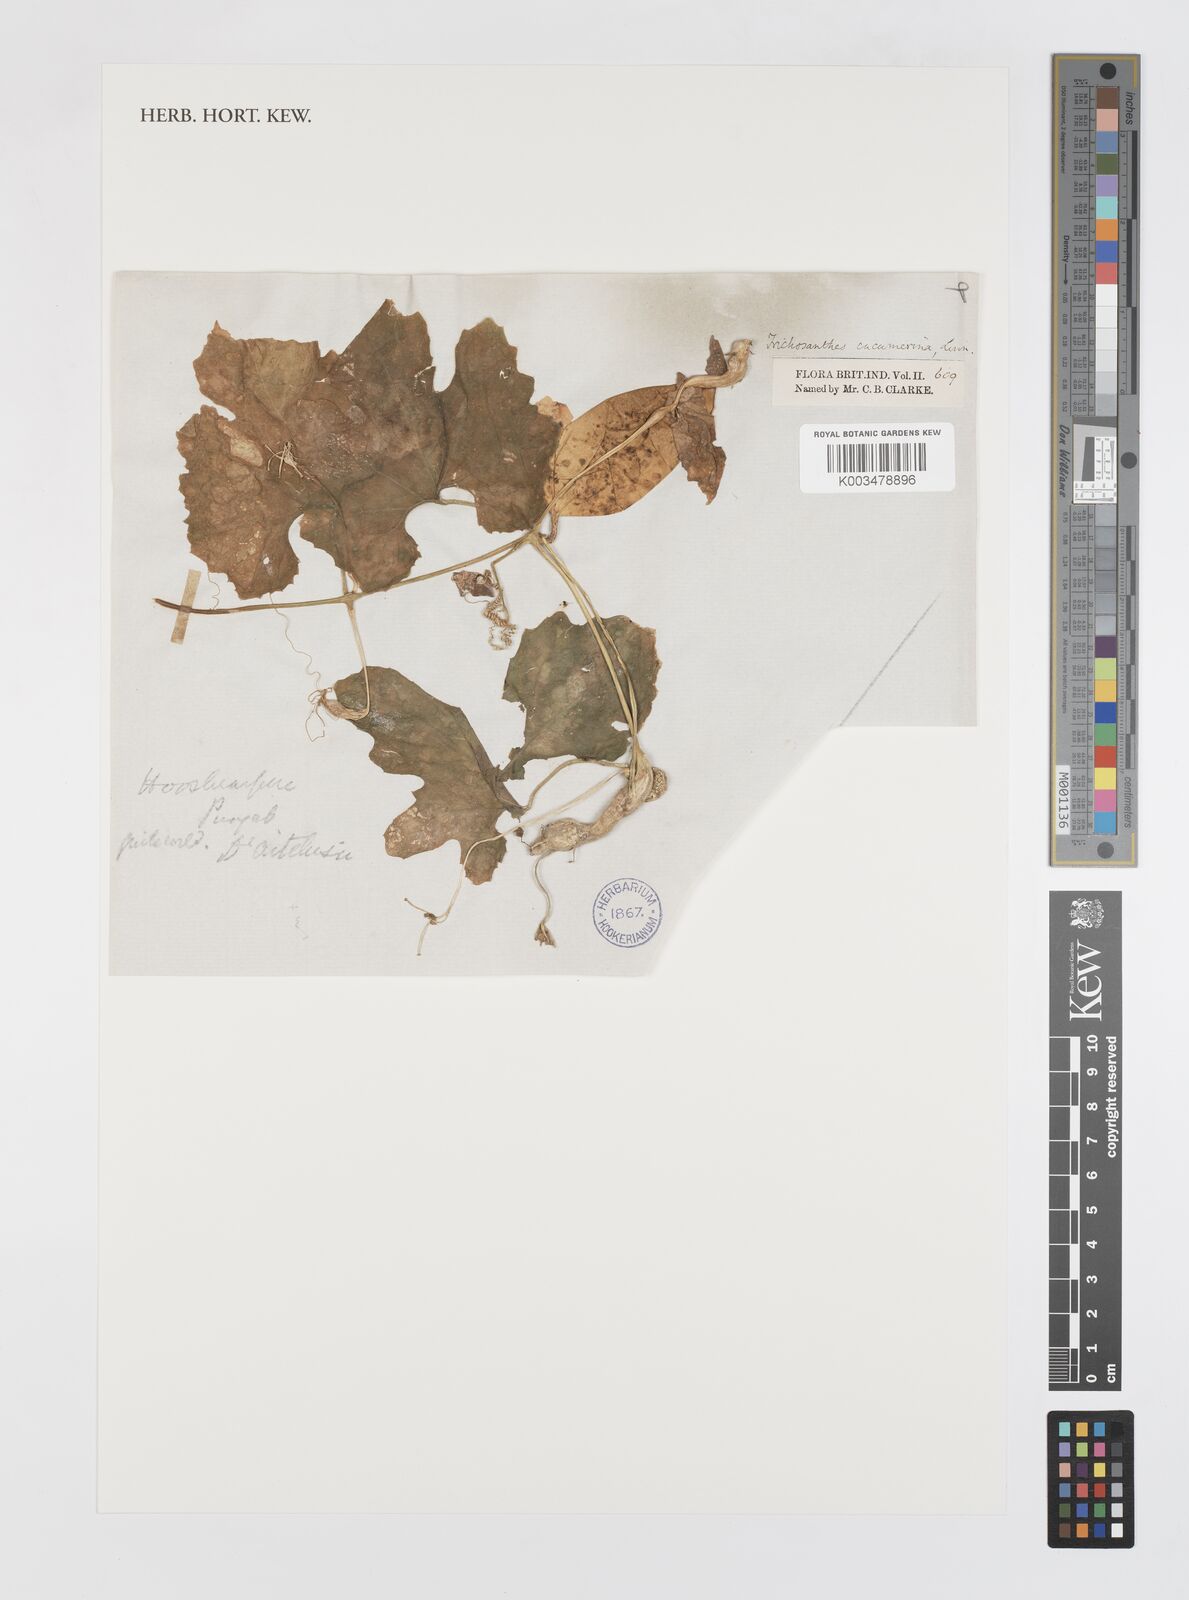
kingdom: Plantae
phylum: Tracheophyta
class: Magnoliopsida
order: Cucurbitales
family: Cucurbitaceae
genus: Trichosanthes
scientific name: Trichosanthes cucumerina
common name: Snakegourd
